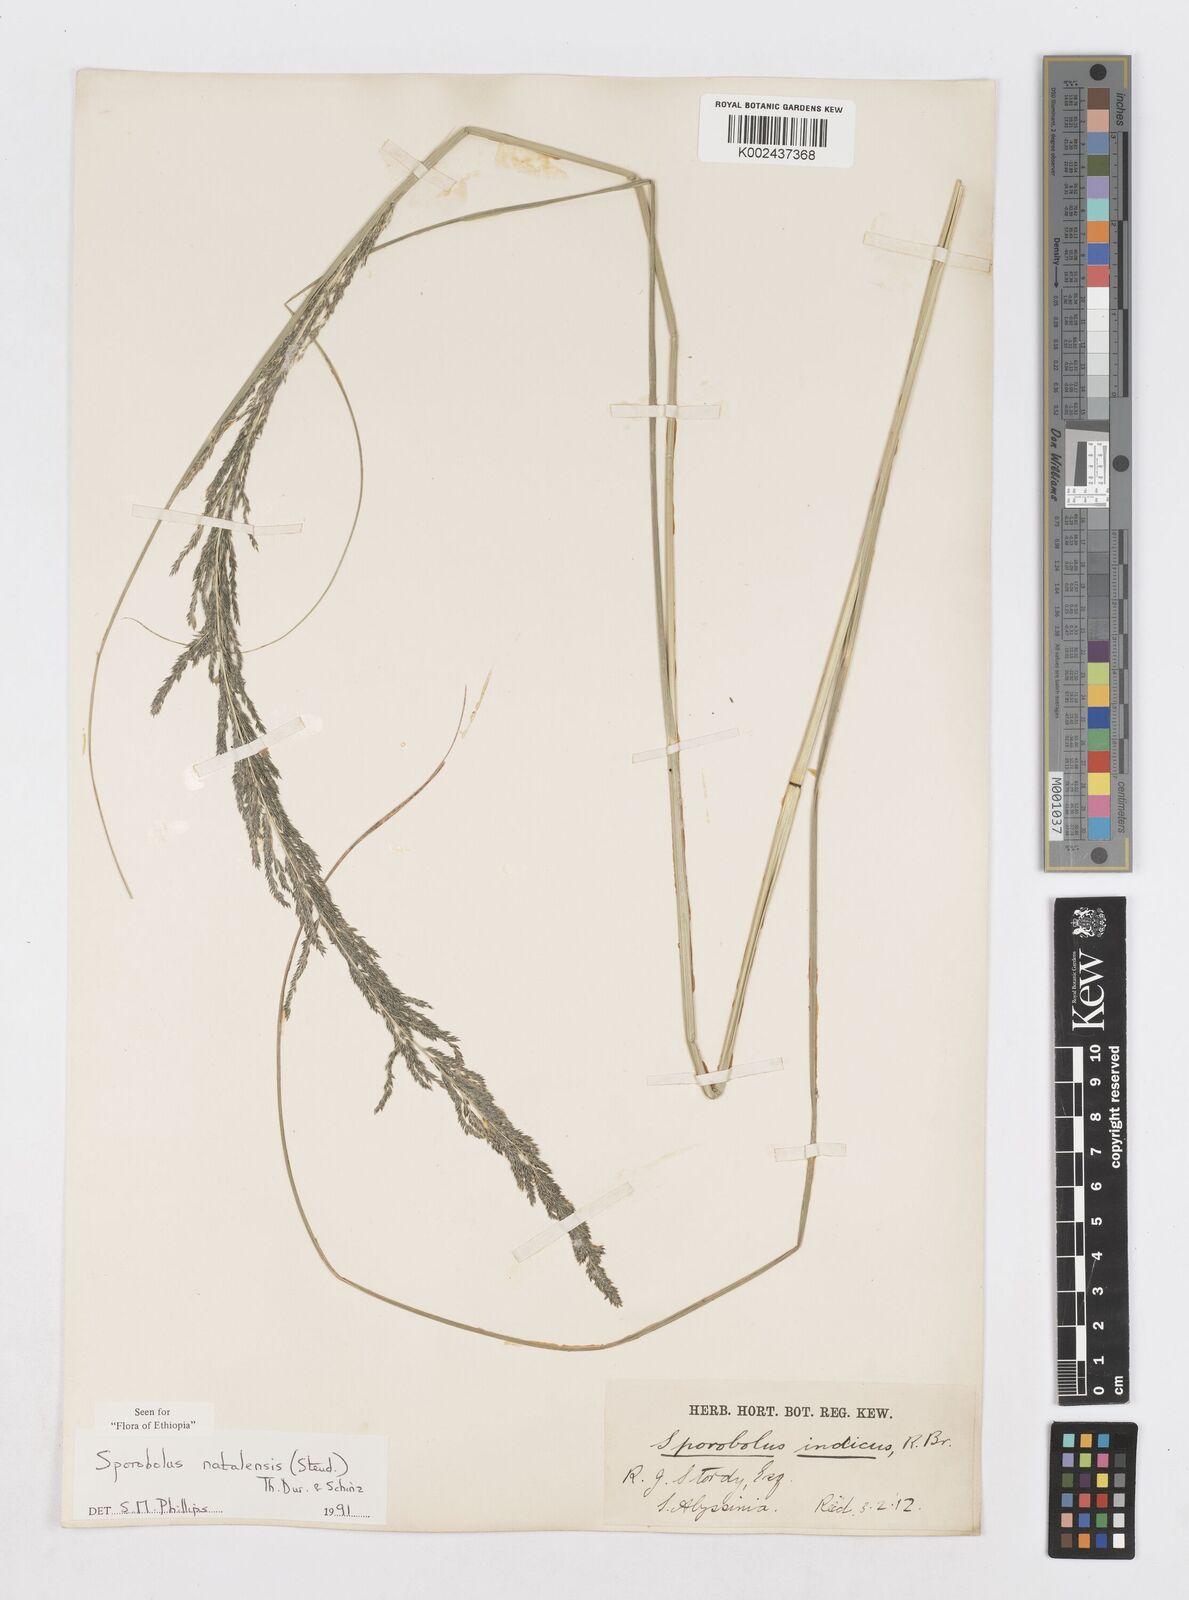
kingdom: Plantae
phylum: Tracheophyta
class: Liliopsida
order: Poales
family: Poaceae
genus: Sporobolus
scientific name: Sporobolus natalensis
